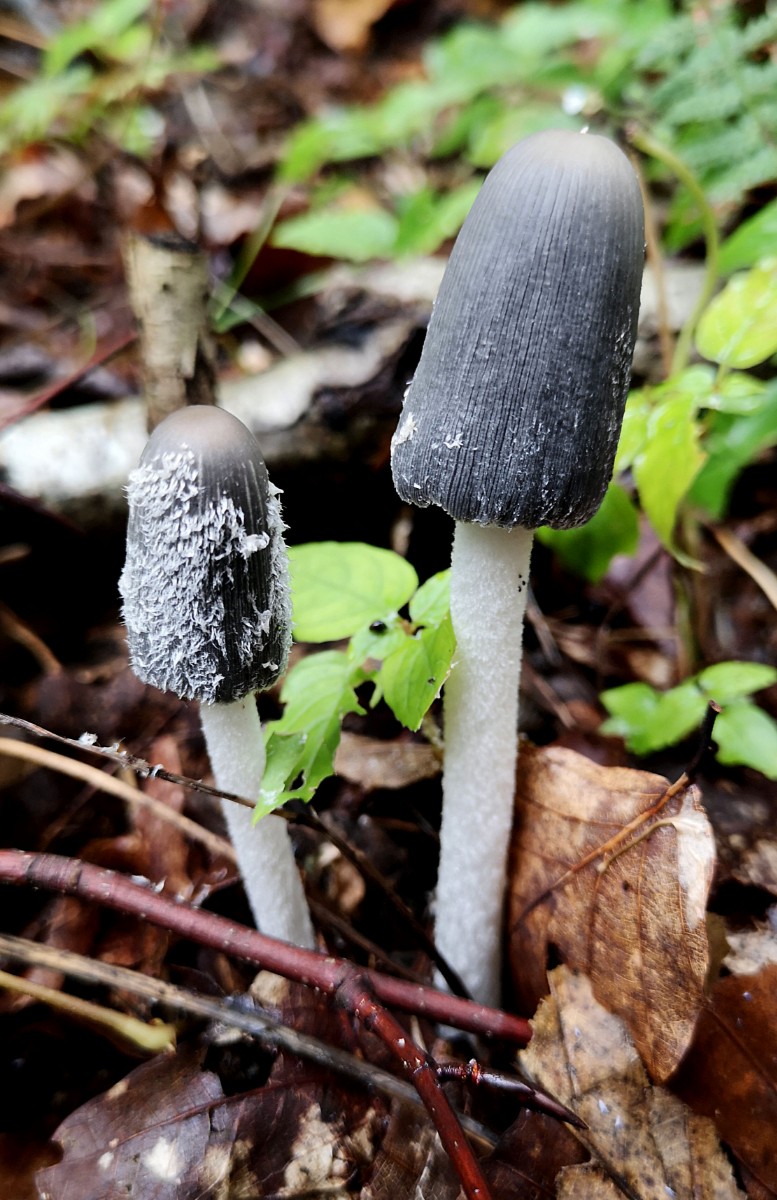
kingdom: Fungi
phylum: Basidiomycota
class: Agaricomycetes
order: Agaricales
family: Psathyrellaceae
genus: Coprinopsis
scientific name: Coprinopsis lagopus
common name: dunstokket blækhat
